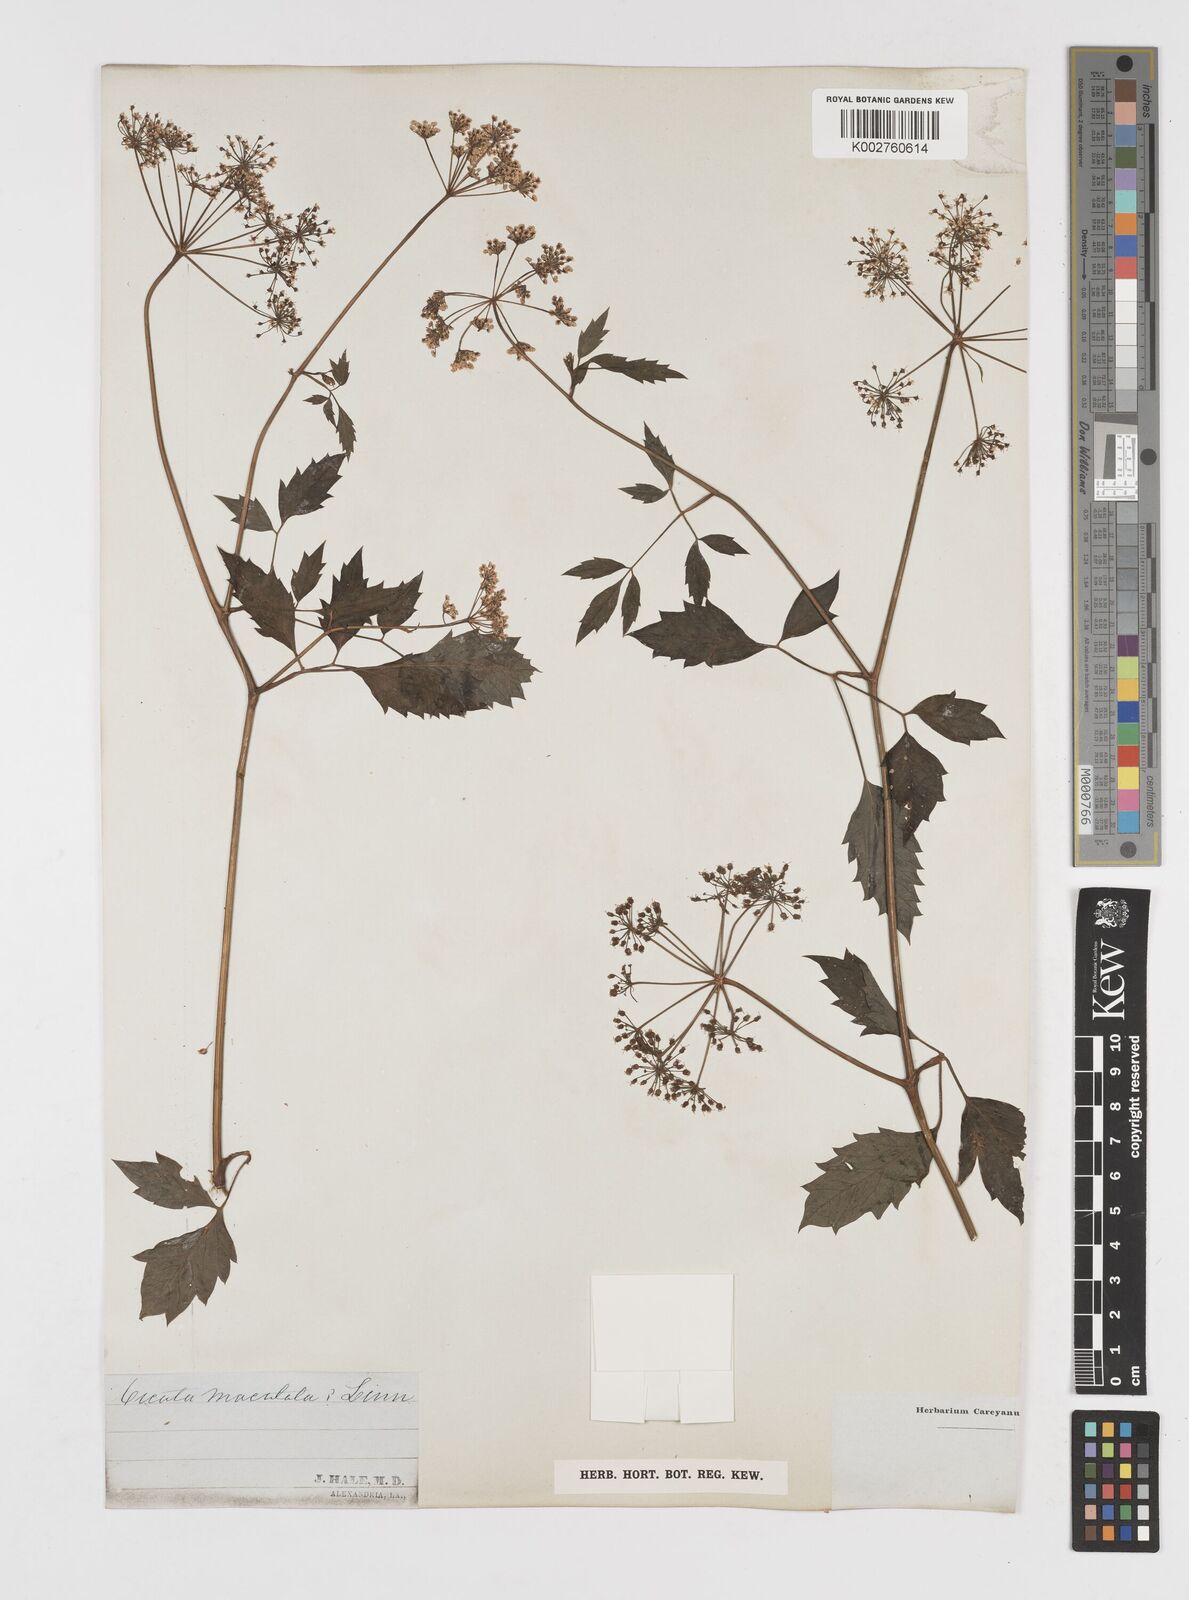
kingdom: Plantae
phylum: Tracheophyta
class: Magnoliopsida
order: Apiales
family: Apiaceae
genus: Cicuta
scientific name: Cicuta maculata
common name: Spotted cowbane
